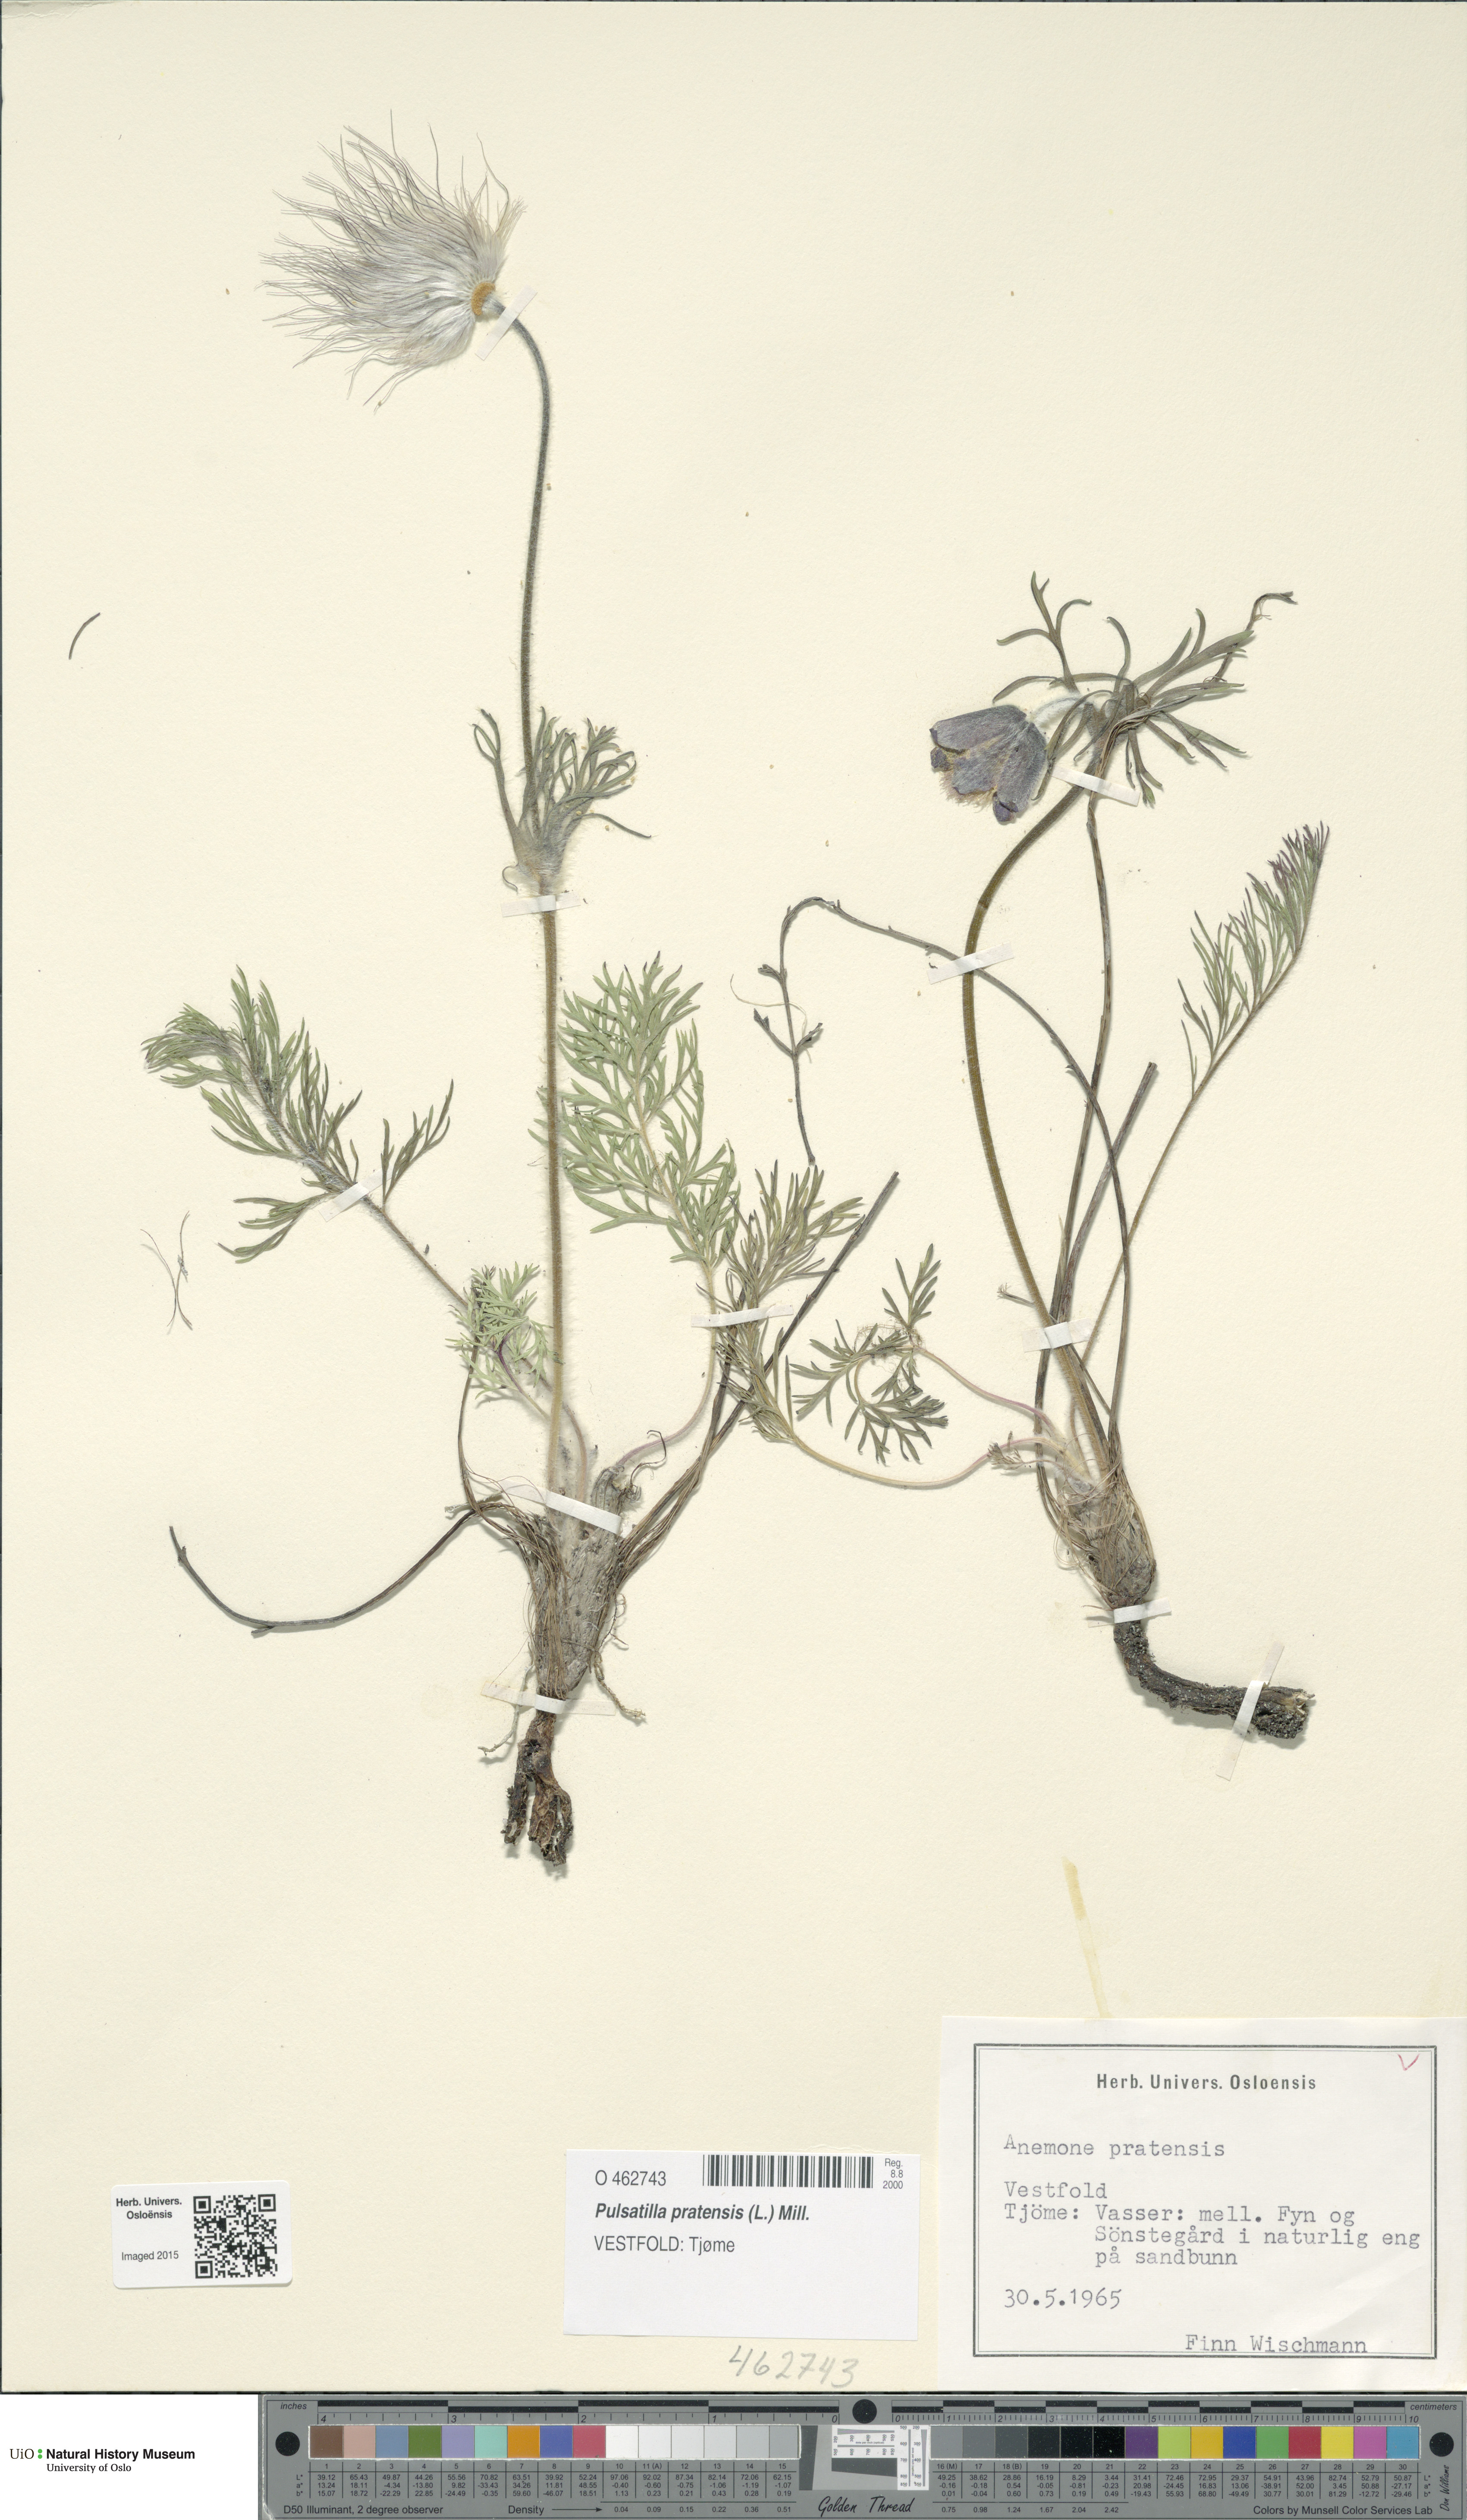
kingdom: Plantae
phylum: Tracheophyta
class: Magnoliopsida
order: Ranunculales
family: Ranunculaceae
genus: Pulsatilla
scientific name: Pulsatilla pratensis
